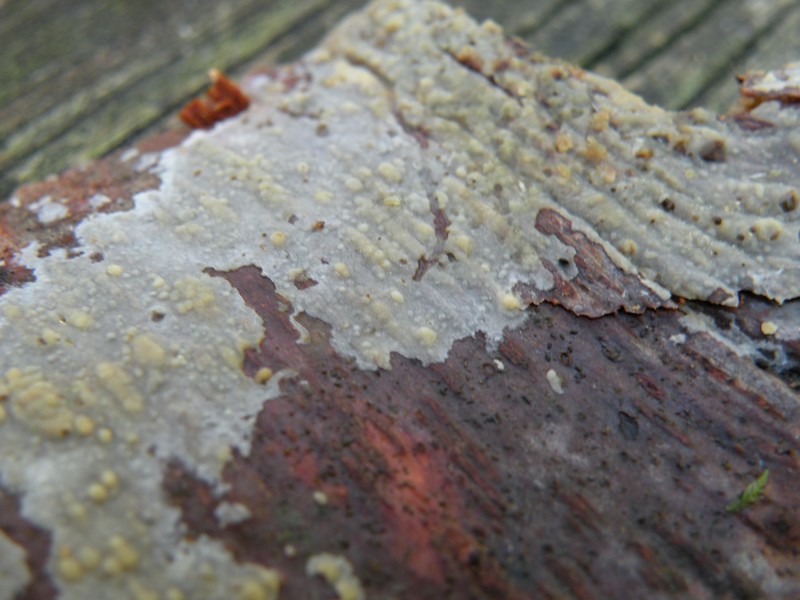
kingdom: Fungi
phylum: Basidiomycota
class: Agaricomycetes
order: Hymenochaetales
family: Rickenellaceae
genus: Peniophorella
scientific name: Peniophorella pubera
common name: dunet kalkskind
